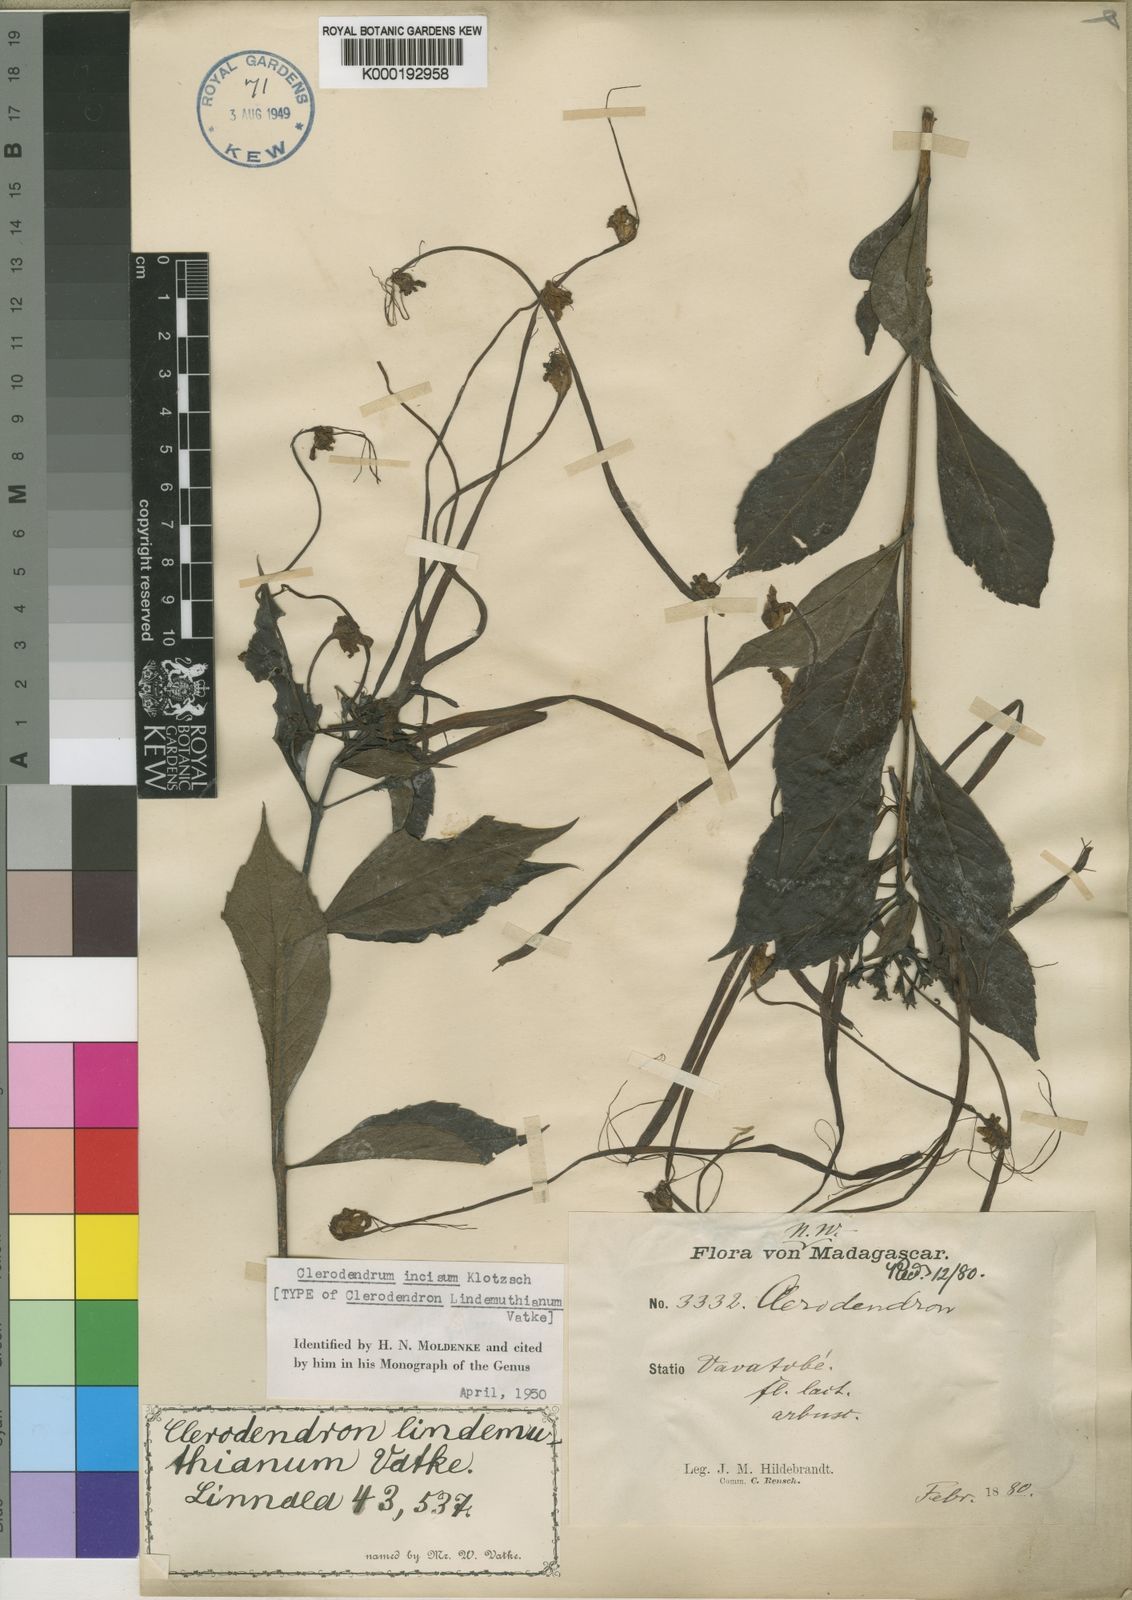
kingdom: Plantae
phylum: Tracheophyta
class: Magnoliopsida
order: Lamiales
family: Lamiaceae
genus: Rotheca
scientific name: Rotheca microphylla
